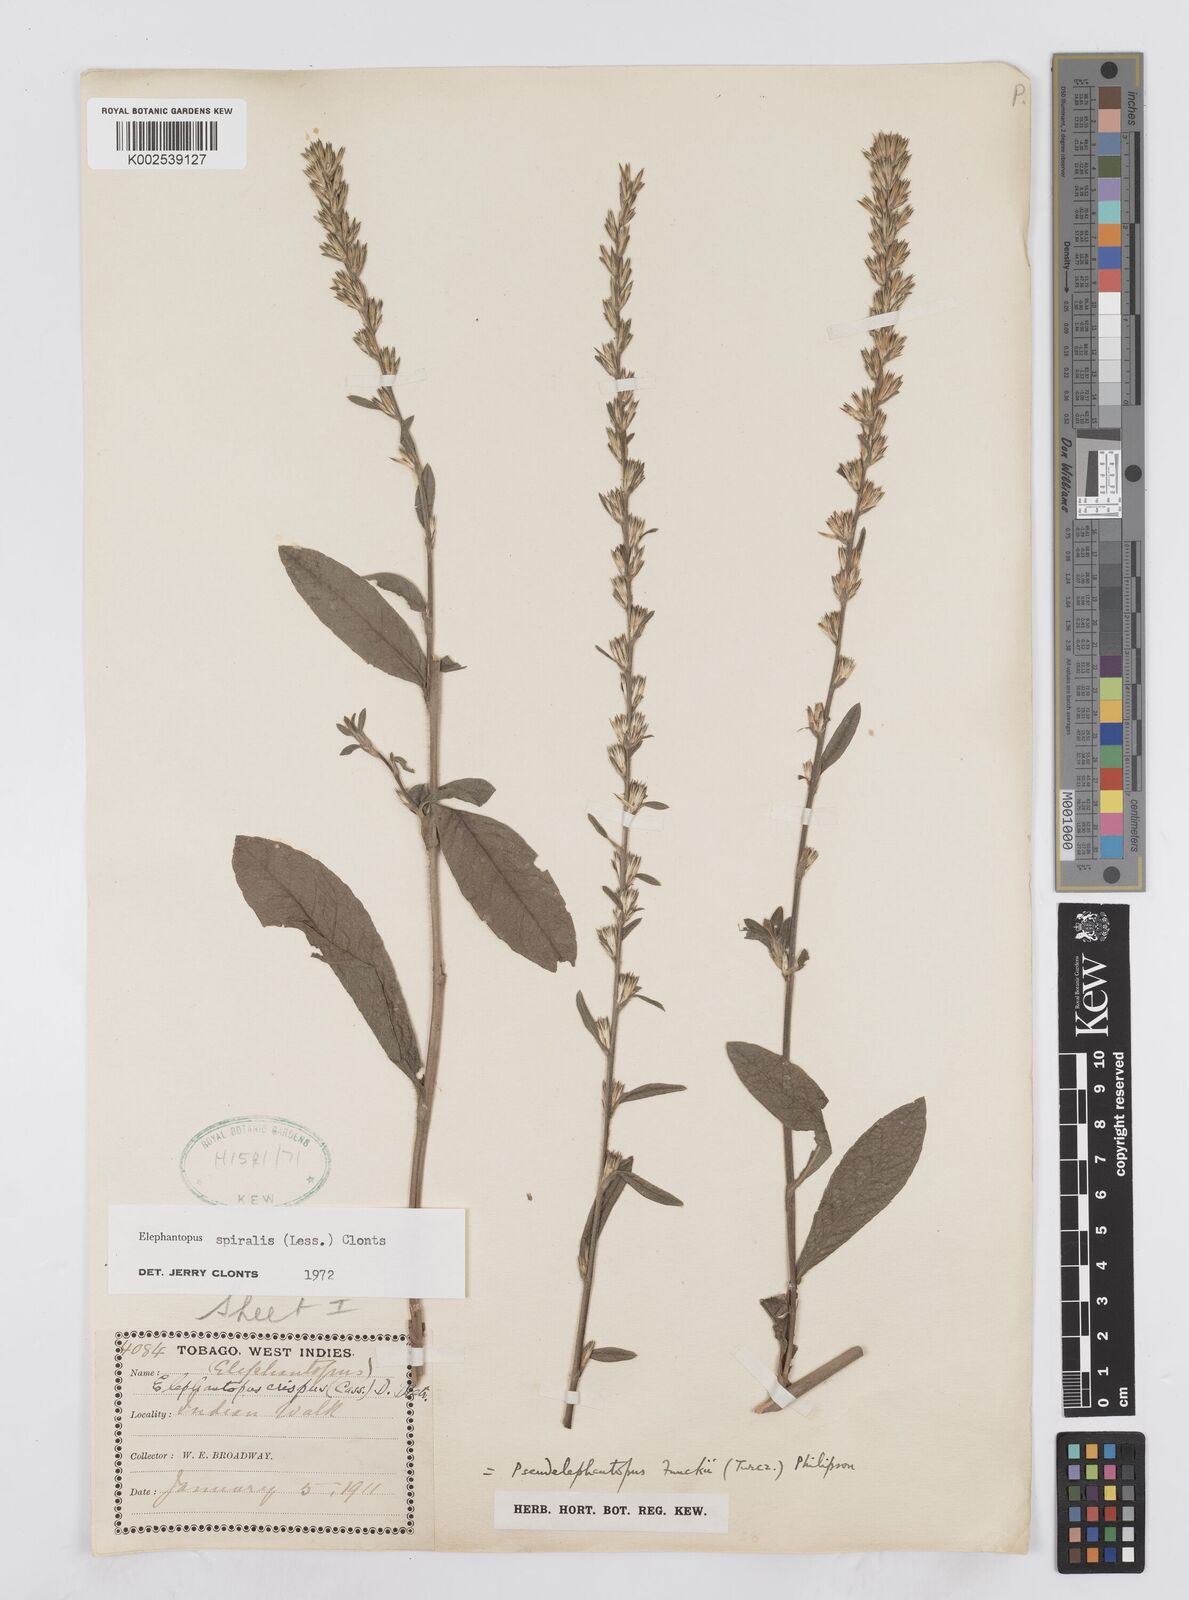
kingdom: Plantae
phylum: Tracheophyta
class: Magnoliopsida
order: Asterales
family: Asteraceae
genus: Pseudelephantopus
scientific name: Pseudelephantopus spiralis
